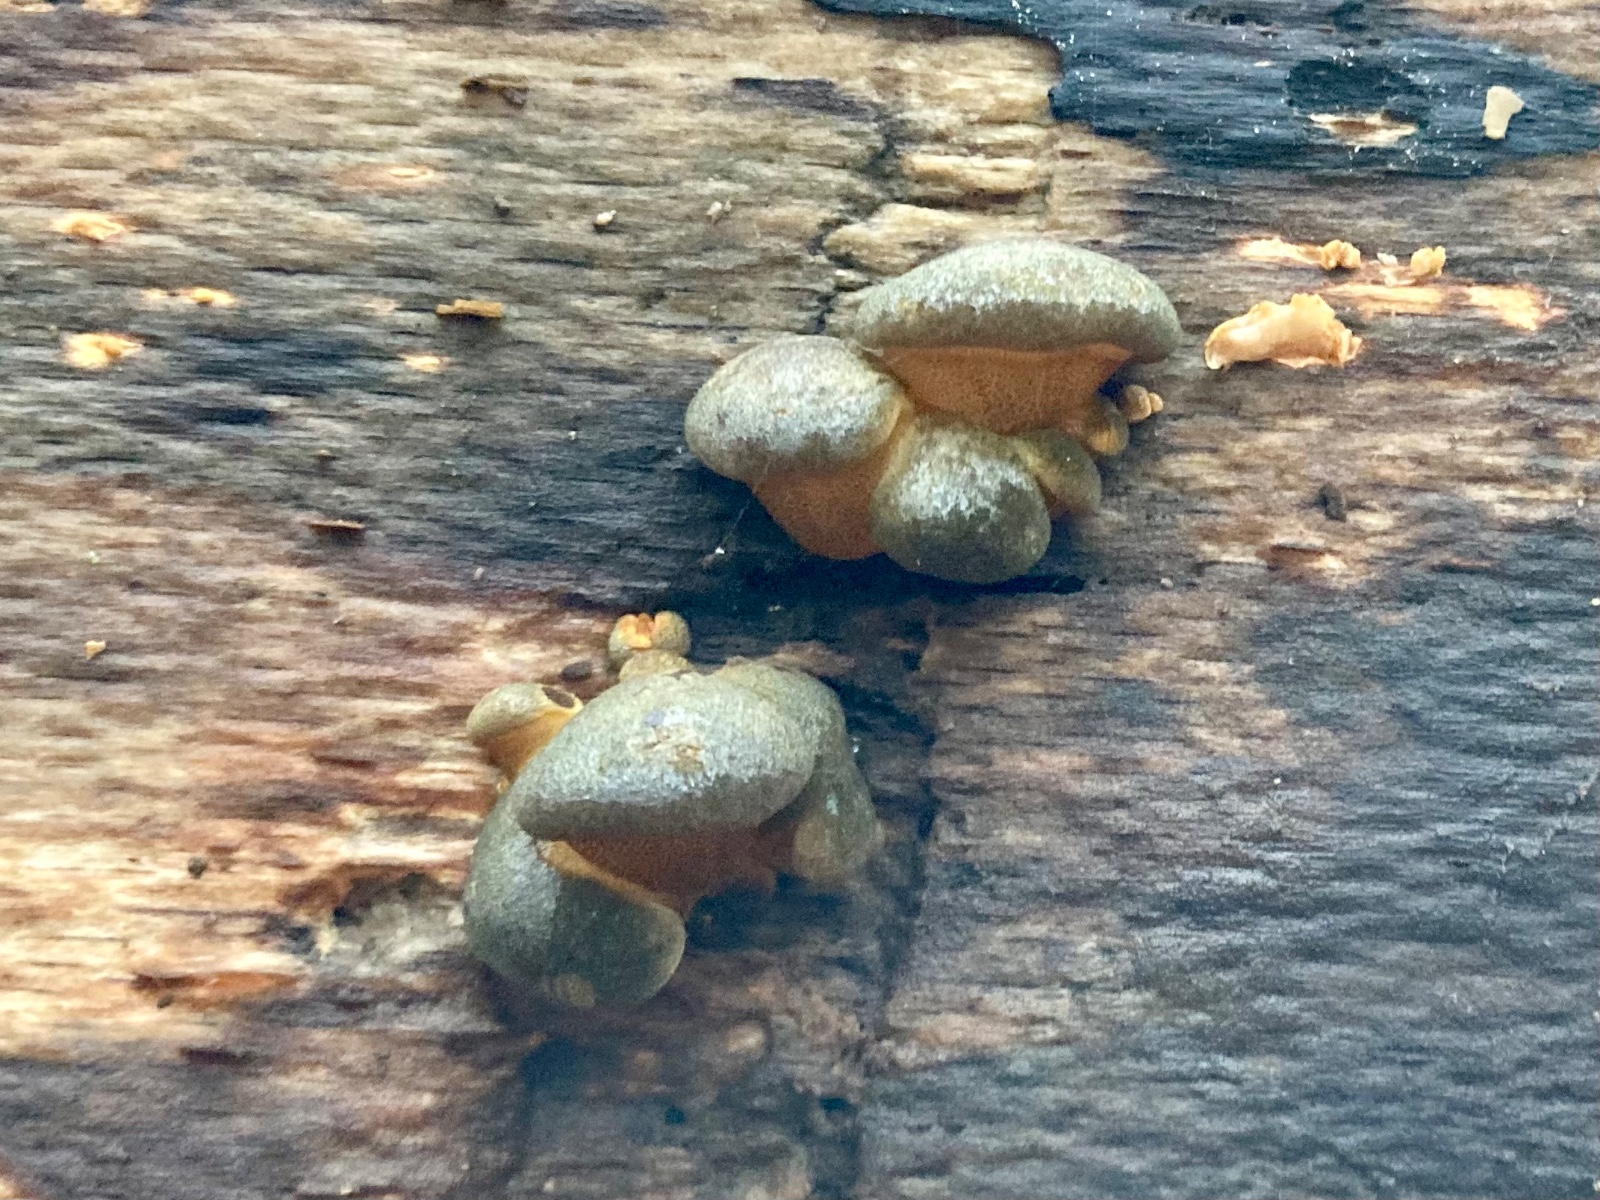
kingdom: Fungi
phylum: Basidiomycota
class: Agaricomycetes
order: Agaricales
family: Sarcomyxaceae
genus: Sarcomyxa
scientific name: Sarcomyxa serotina
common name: gummihat
